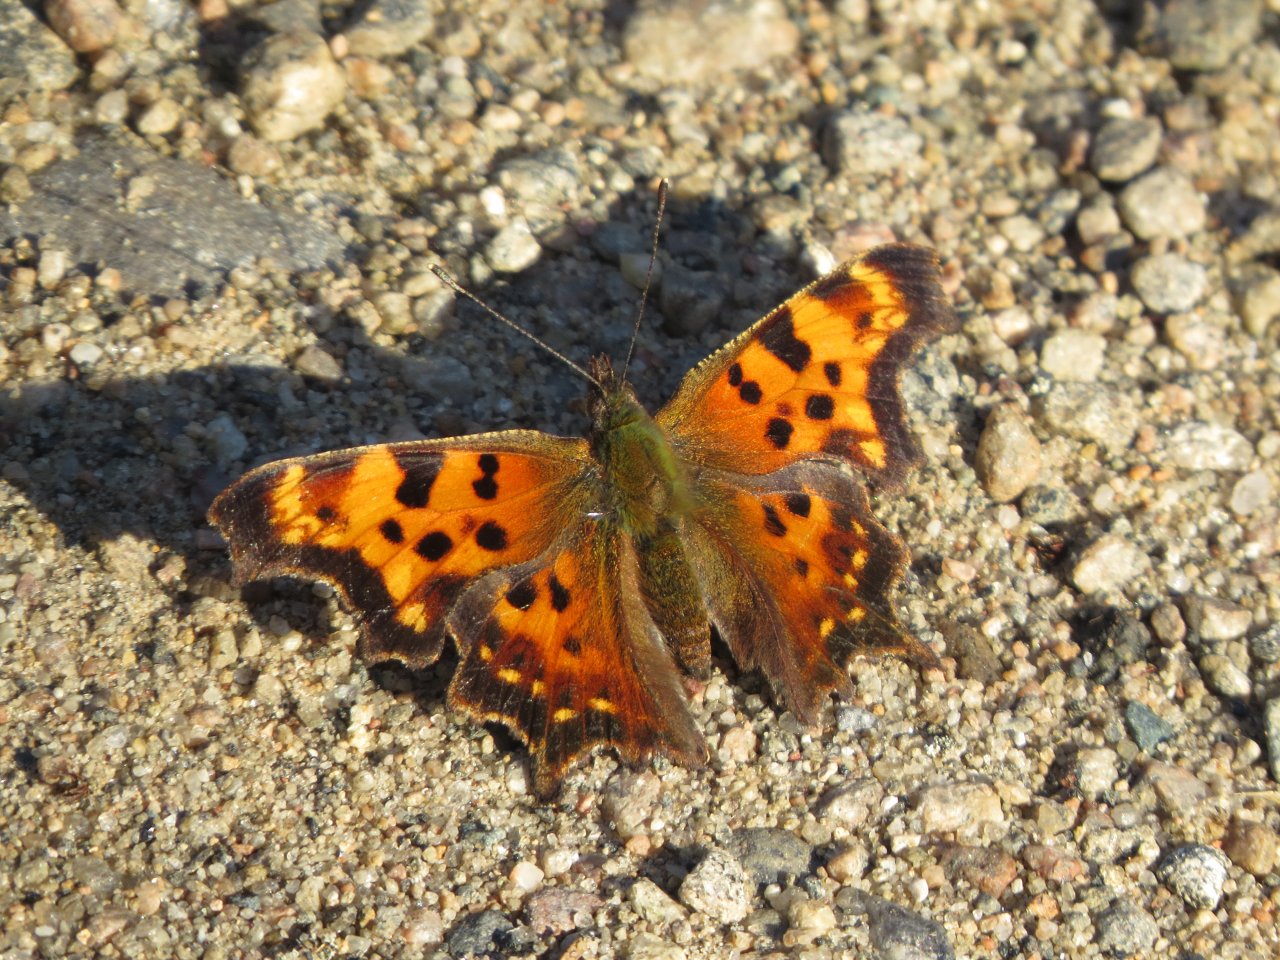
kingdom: Animalia
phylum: Arthropoda
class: Insecta
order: Lepidoptera
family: Nymphalidae
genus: Polygonia
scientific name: Polygonia faunus
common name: Green Comma
